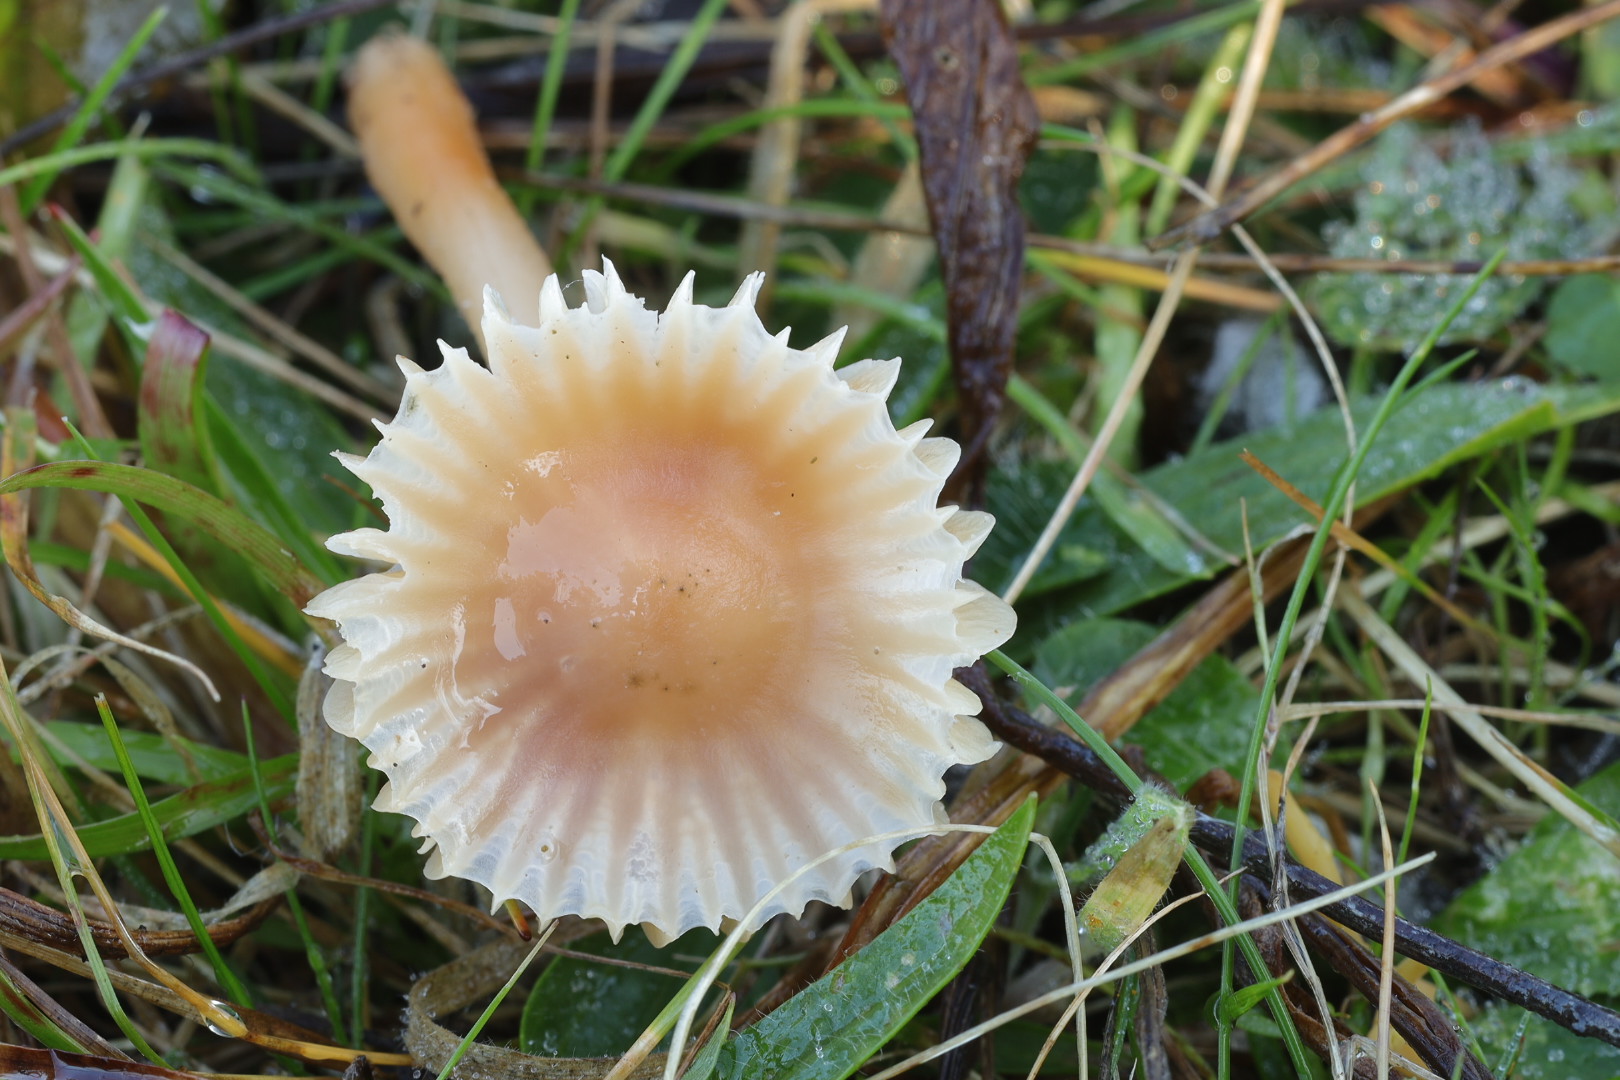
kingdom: Fungi
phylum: Basidiomycota
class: Agaricomycetes
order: Agaricales
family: Hygrophoraceae
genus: Hygrocybe
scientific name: Hygrocybe
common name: vokshat
